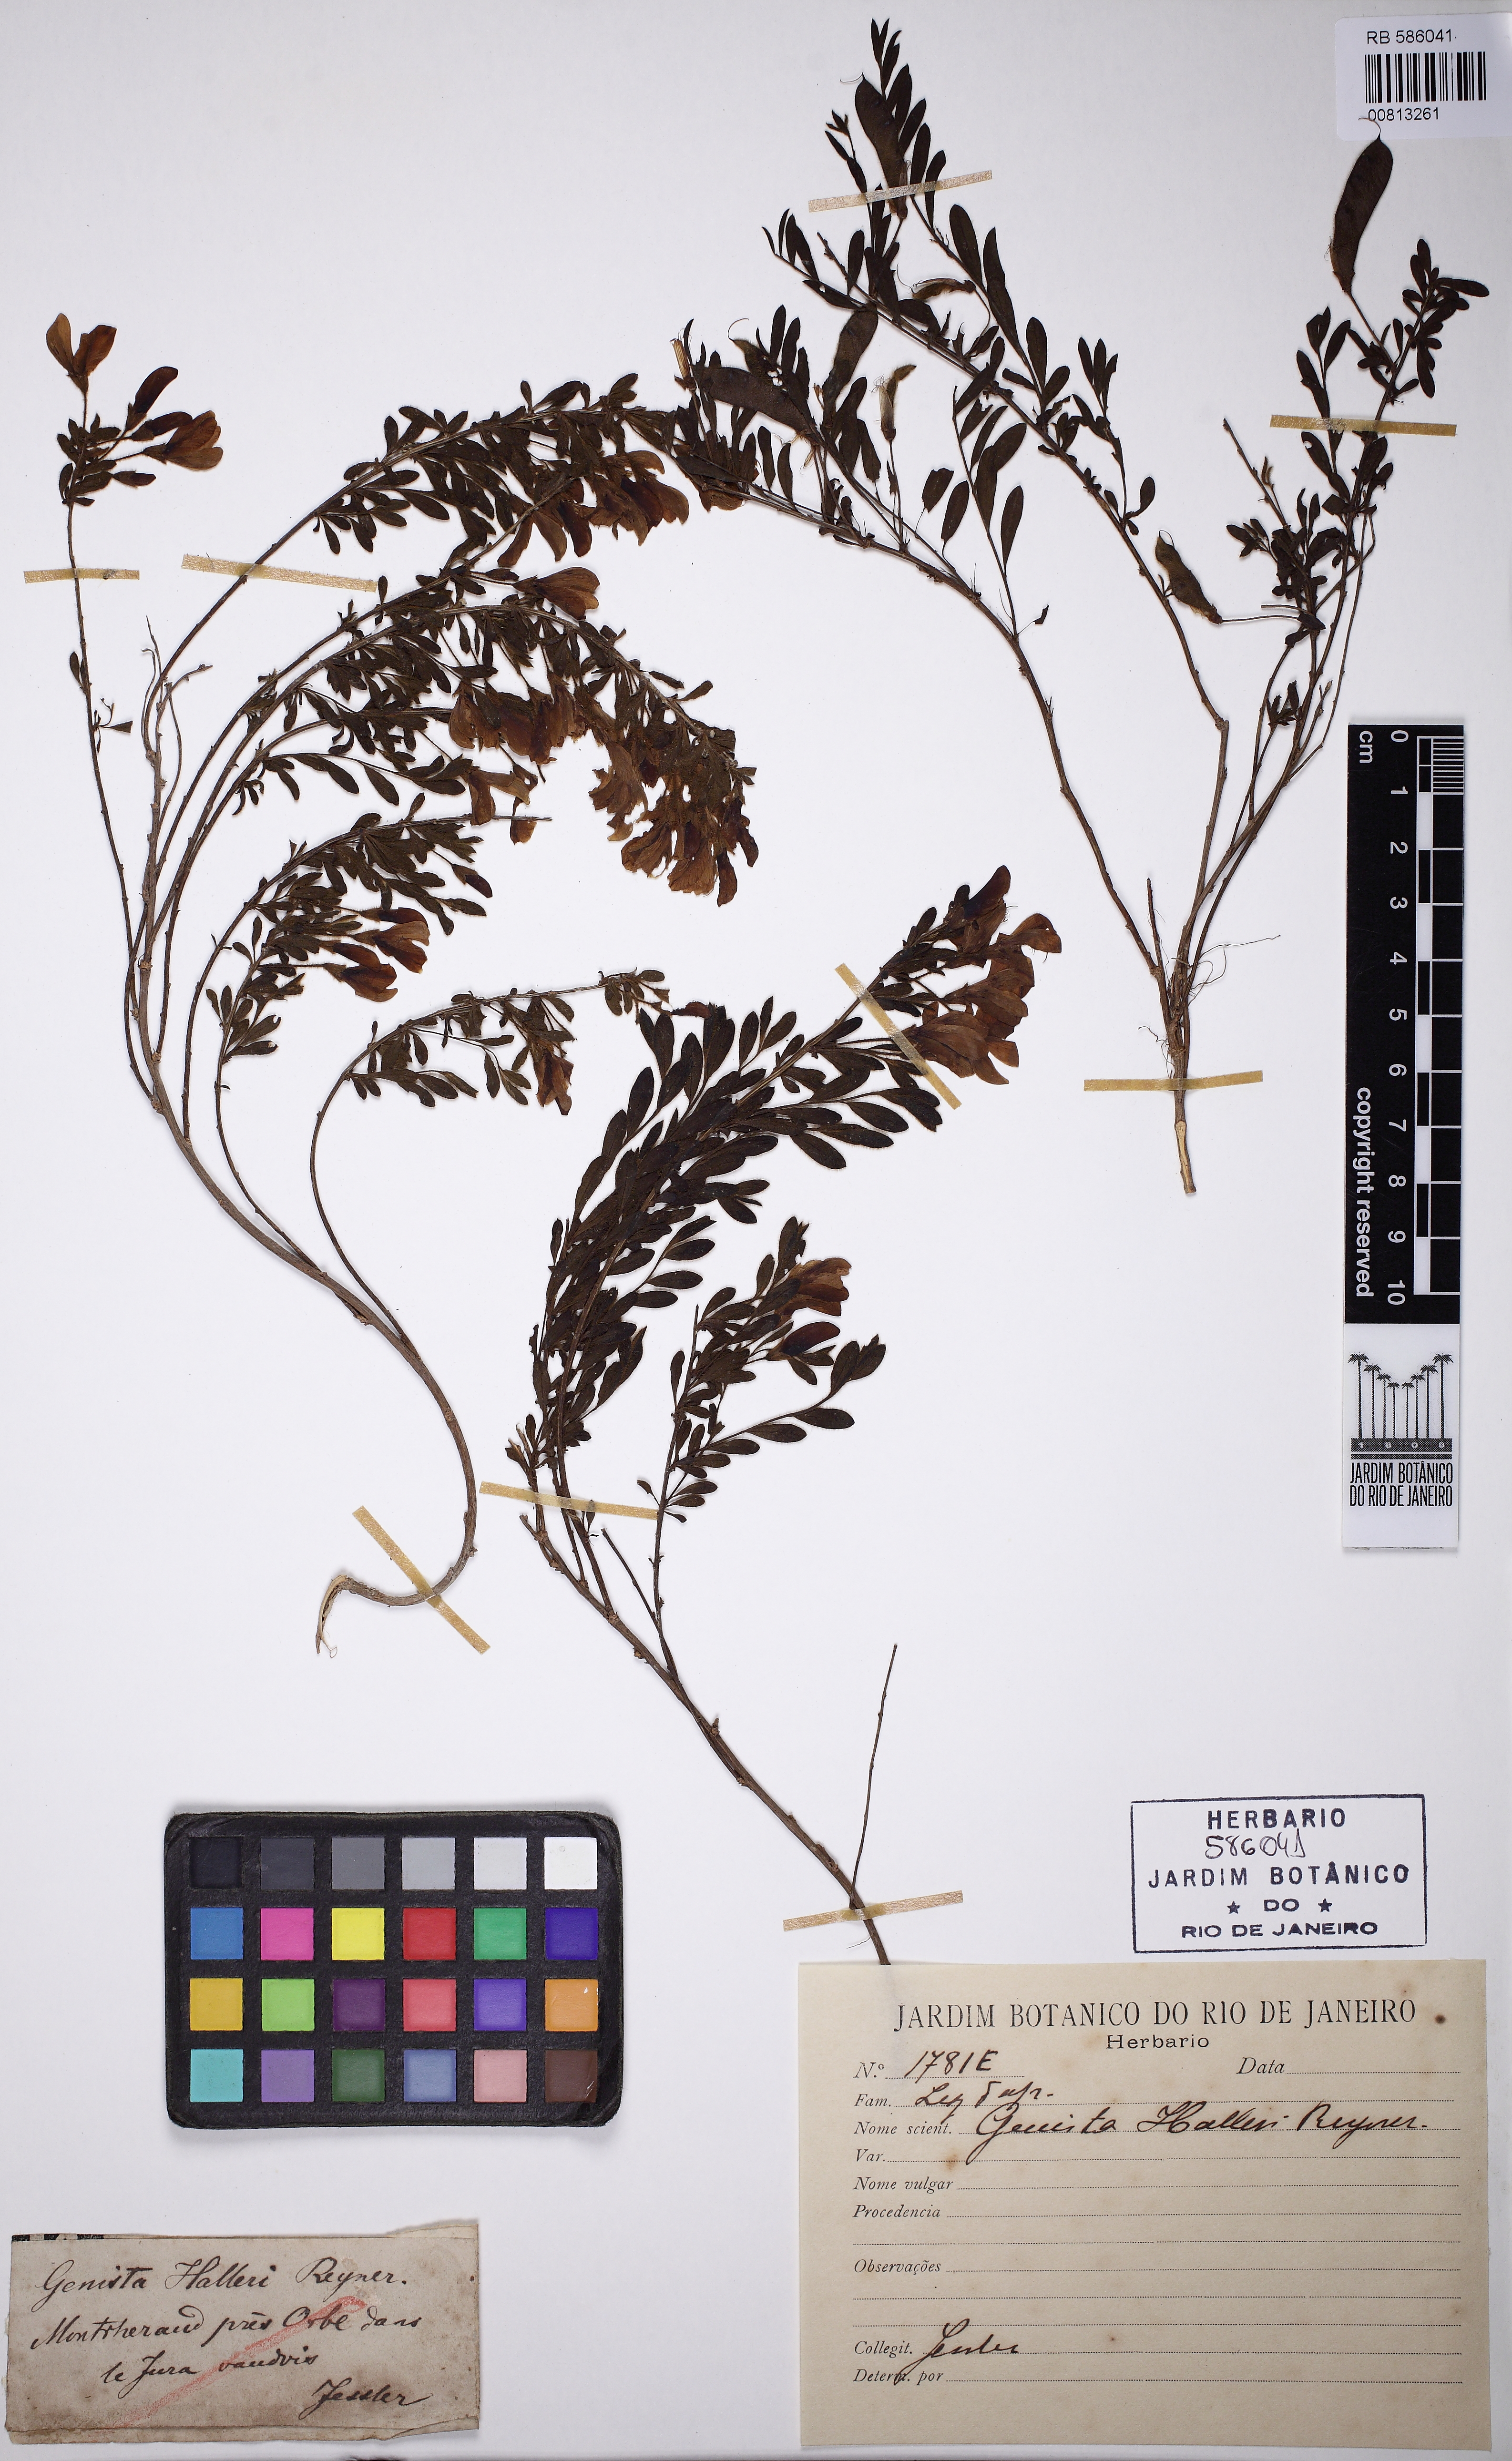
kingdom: Plantae
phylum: Tracheophyta
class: Magnoliopsida
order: Fabales
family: Fabaceae
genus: Cytisus
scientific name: Cytisus decumbens
